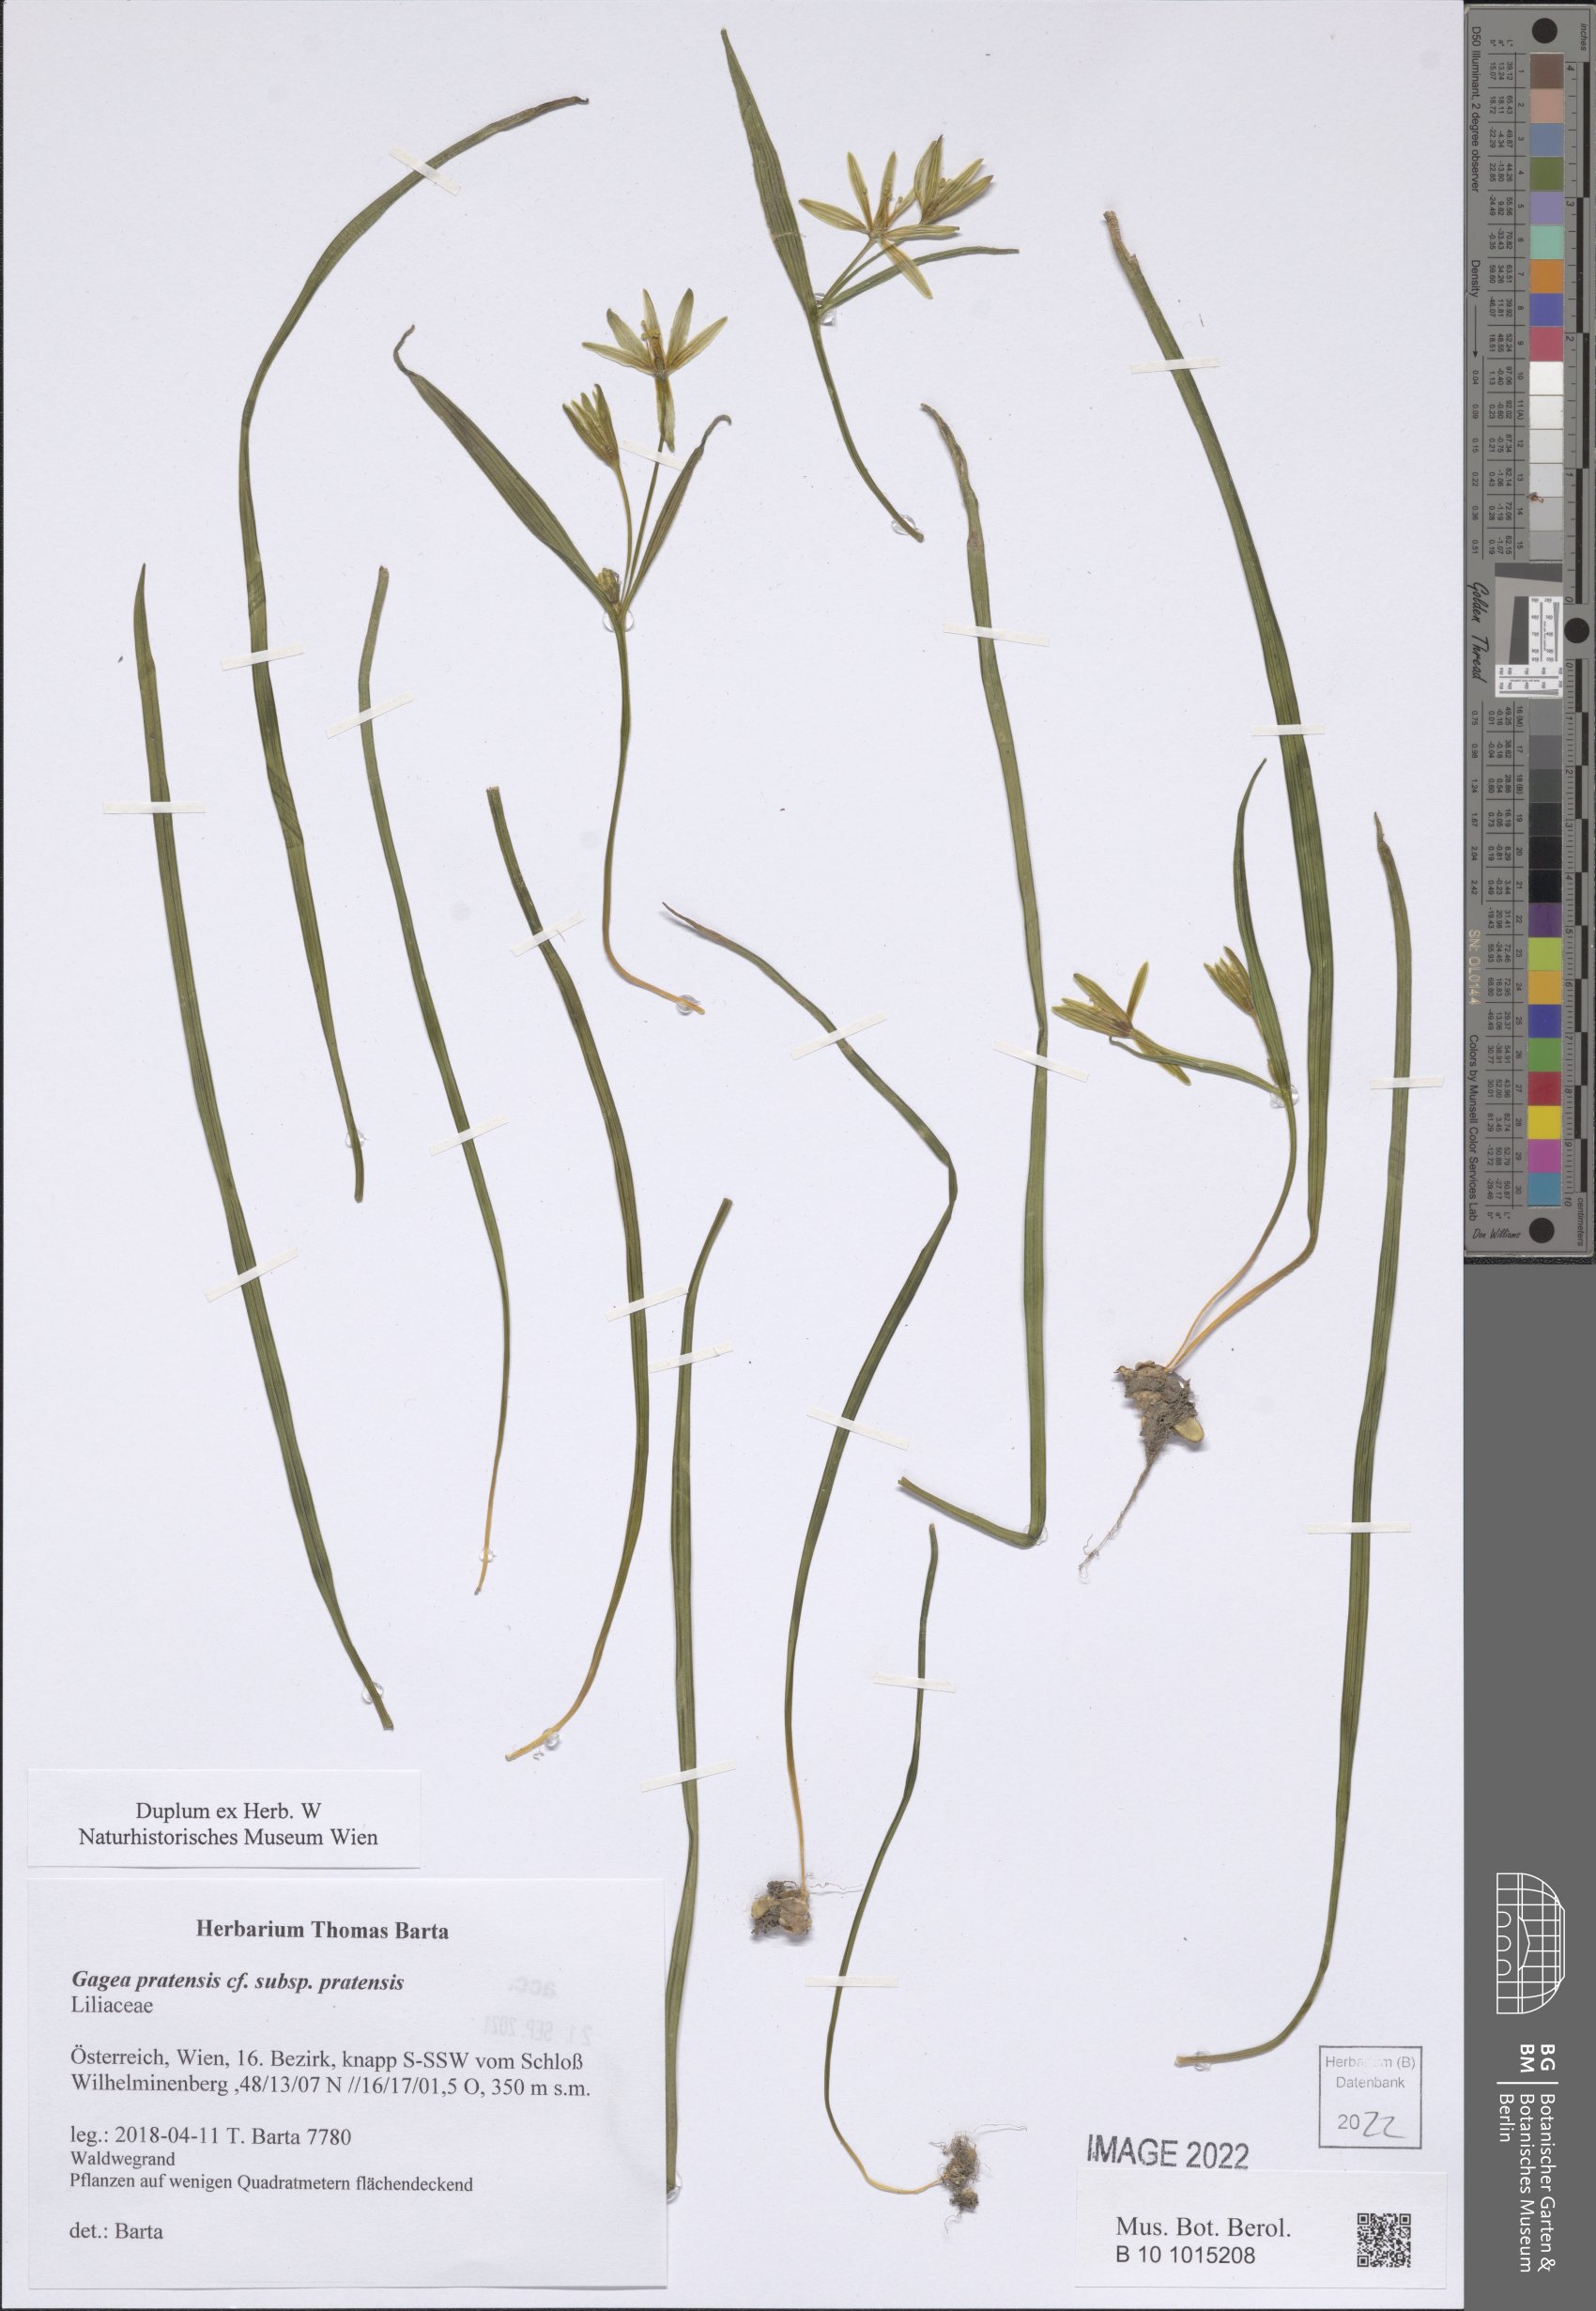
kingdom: Plantae
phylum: Tracheophyta
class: Liliopsida
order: Liliales
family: Liliaceae
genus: Gagea
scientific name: Gagea pratensis
